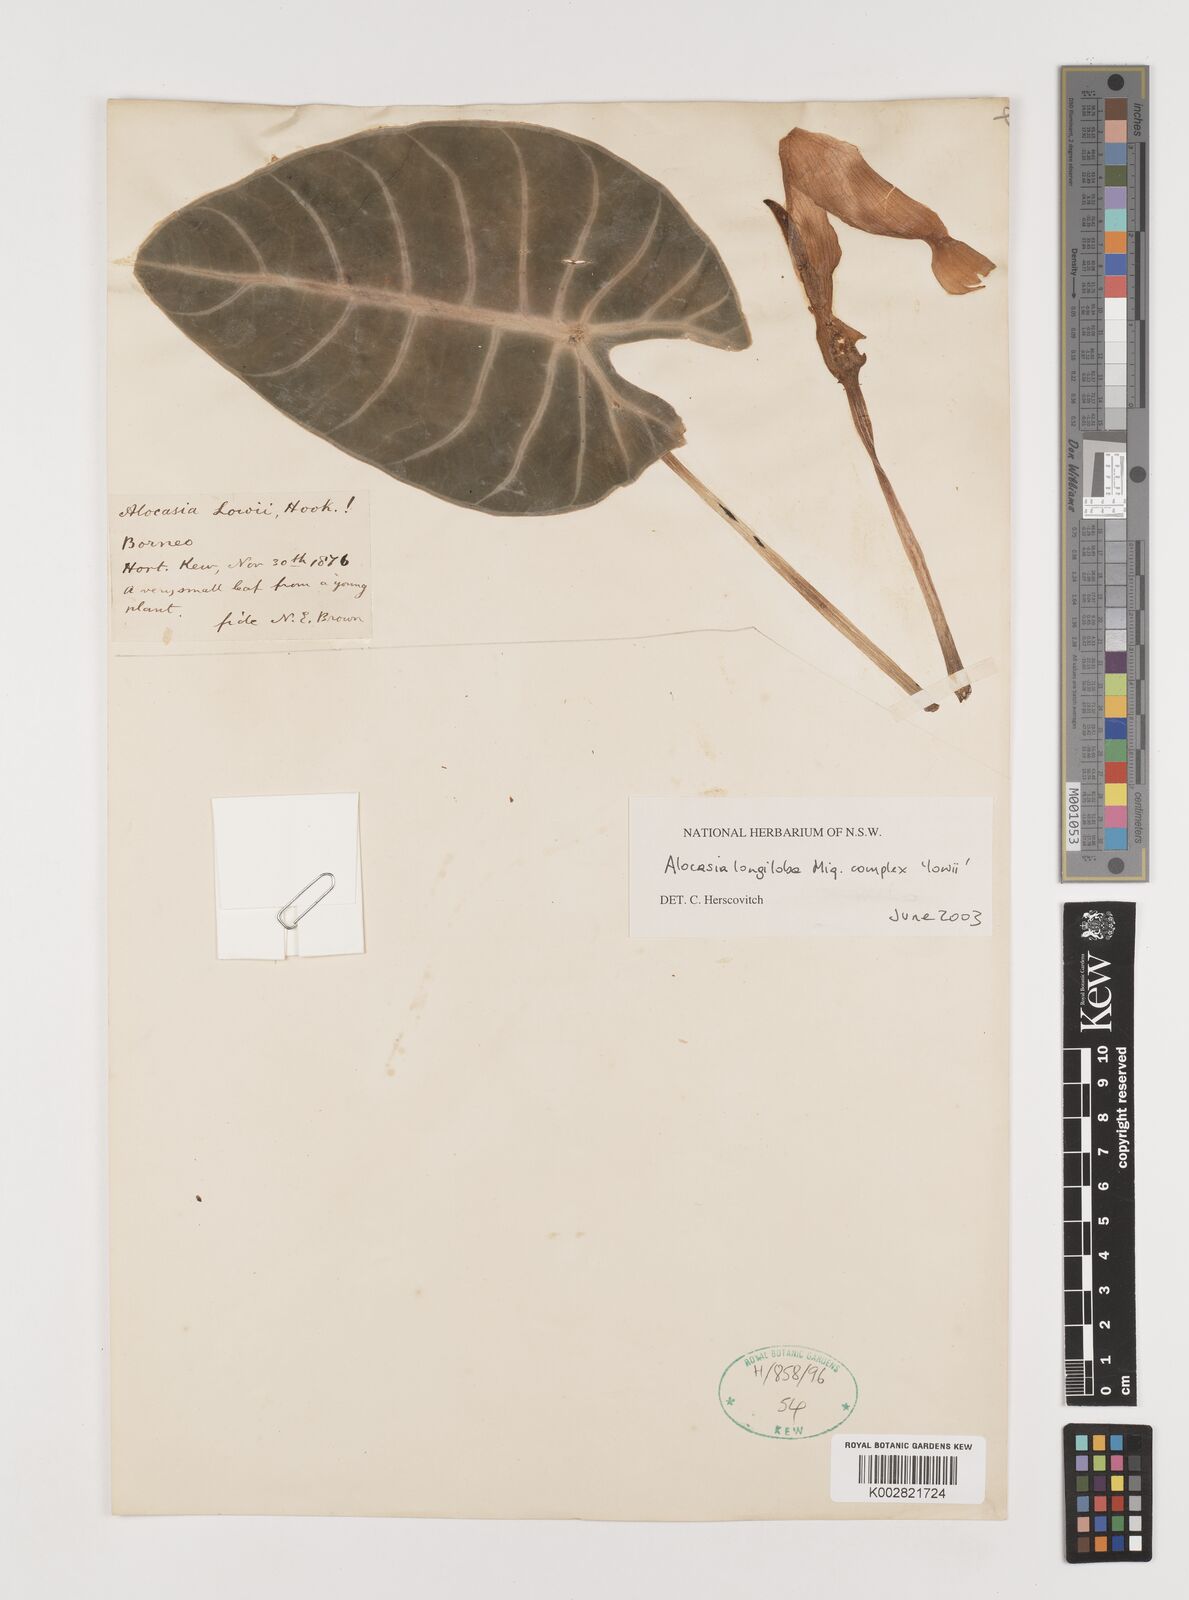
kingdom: Plantae
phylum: Tracheophyta
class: Liliopsida
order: Alismatales
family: Araceae
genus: Alocasia
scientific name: Alocasia longiloba
